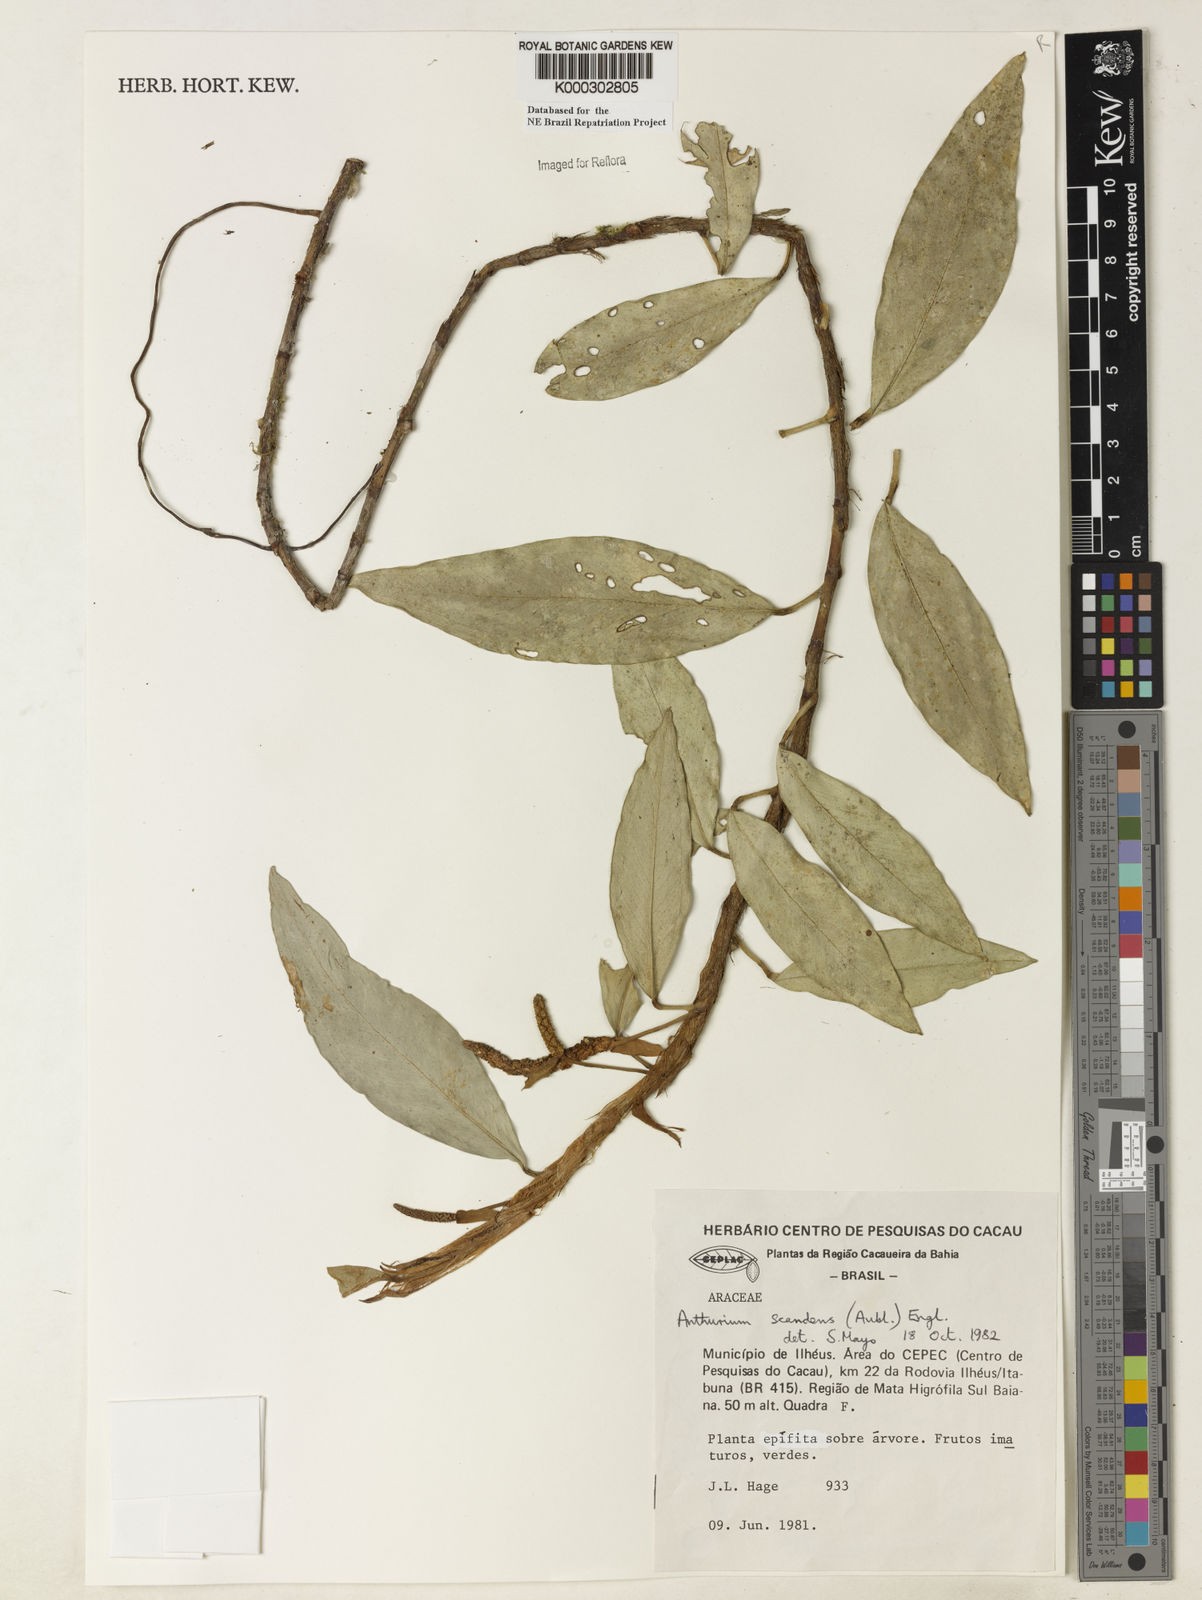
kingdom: Plantae
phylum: Tracheophyta
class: Liliopsida
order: Alismatales
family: Araceae
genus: Anthurium
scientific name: Anthurium scandens
